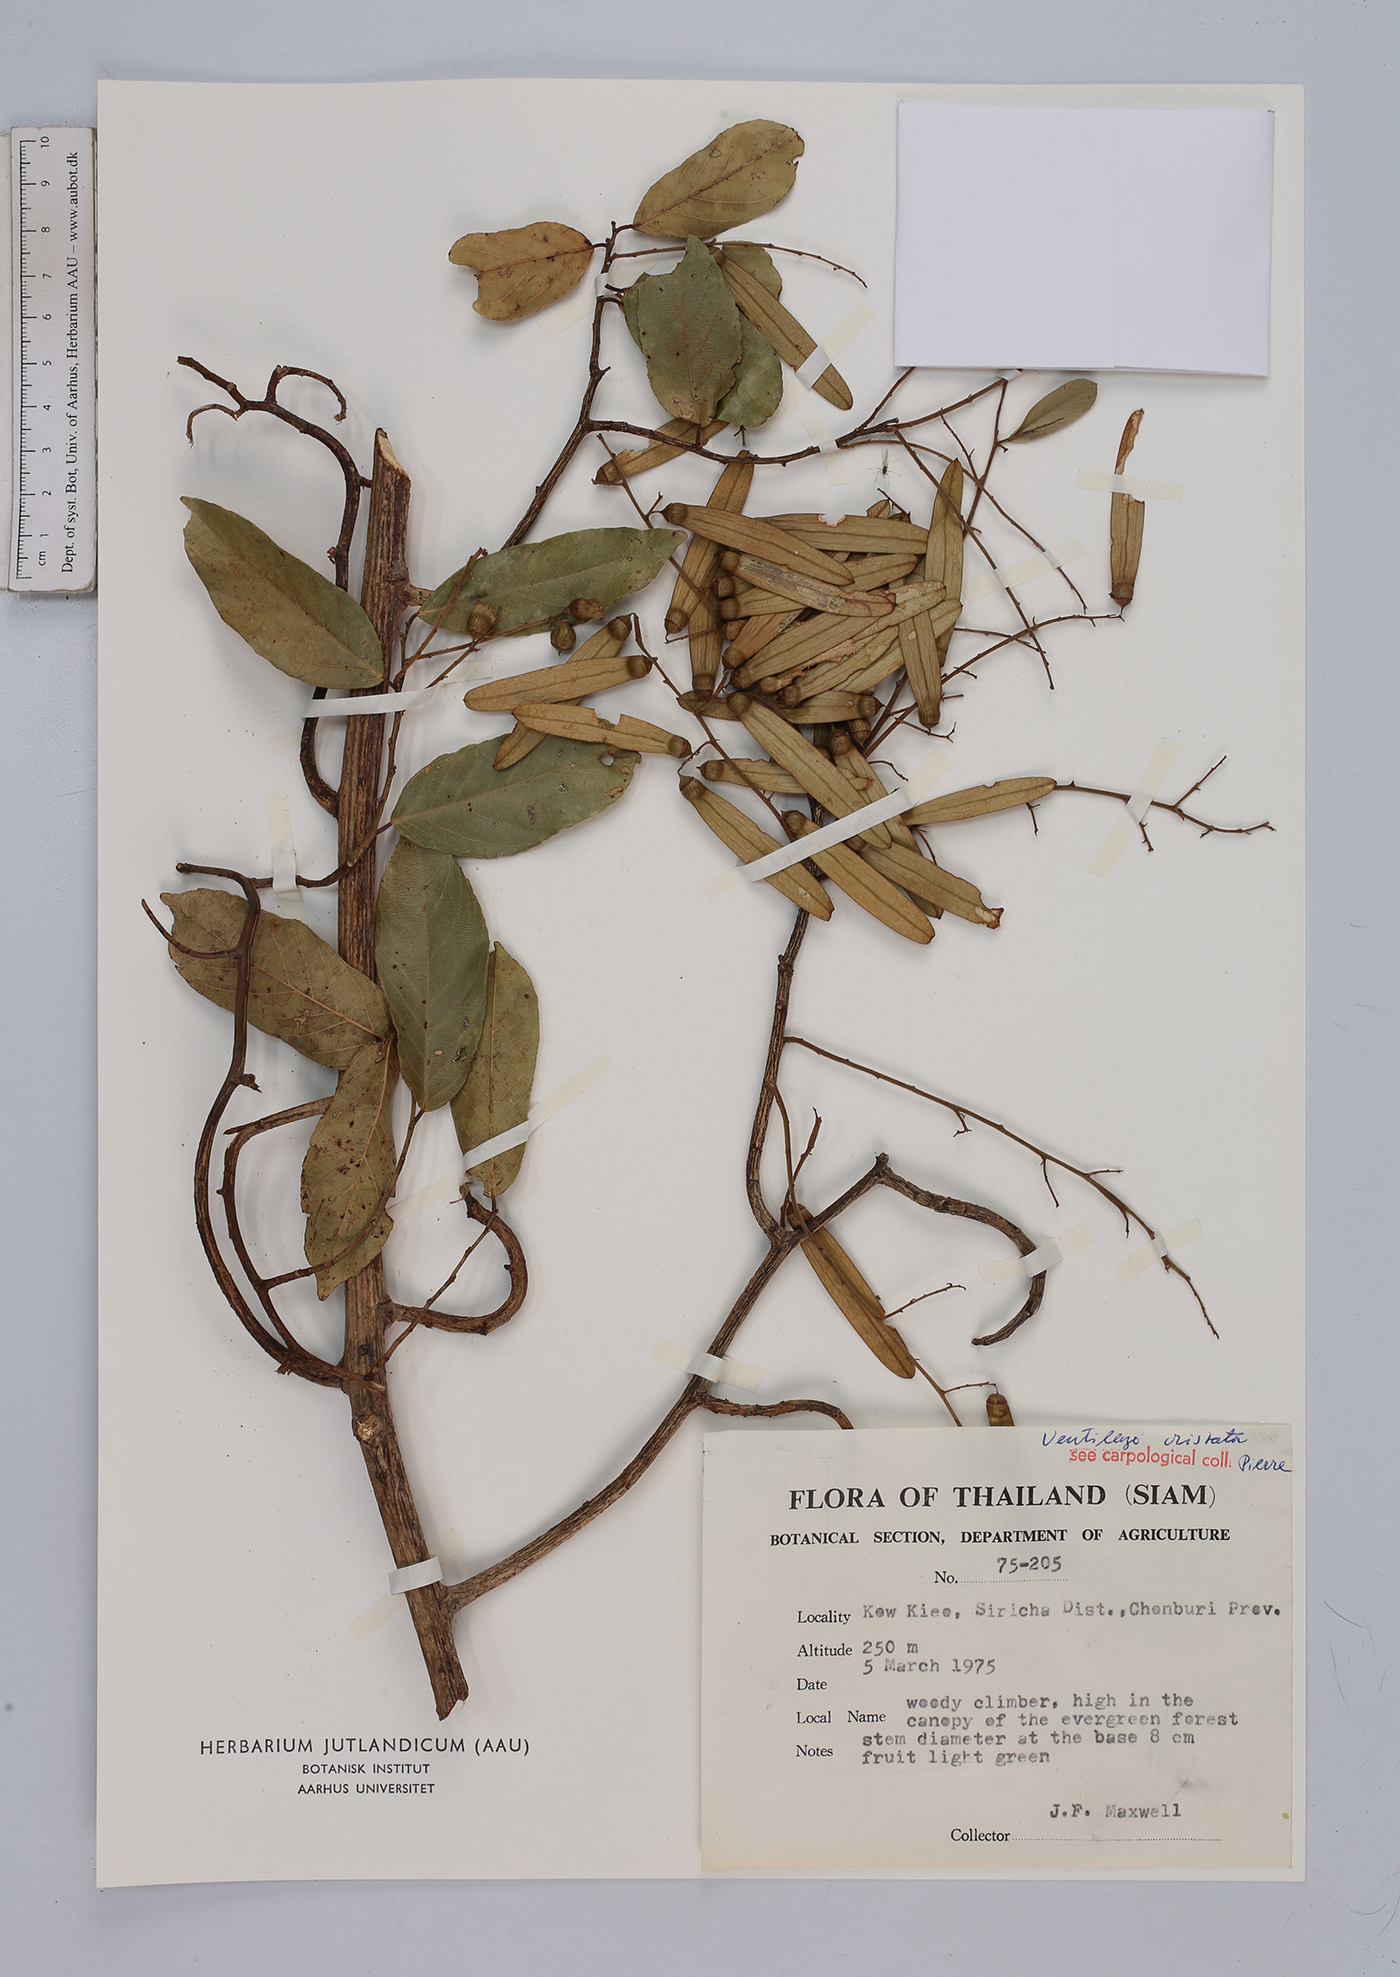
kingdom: Plantae
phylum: Tracheophyta
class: Magnoliopsida
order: Rosales
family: Rhamnaceae
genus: Ventilago
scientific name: Ventilago cristata
